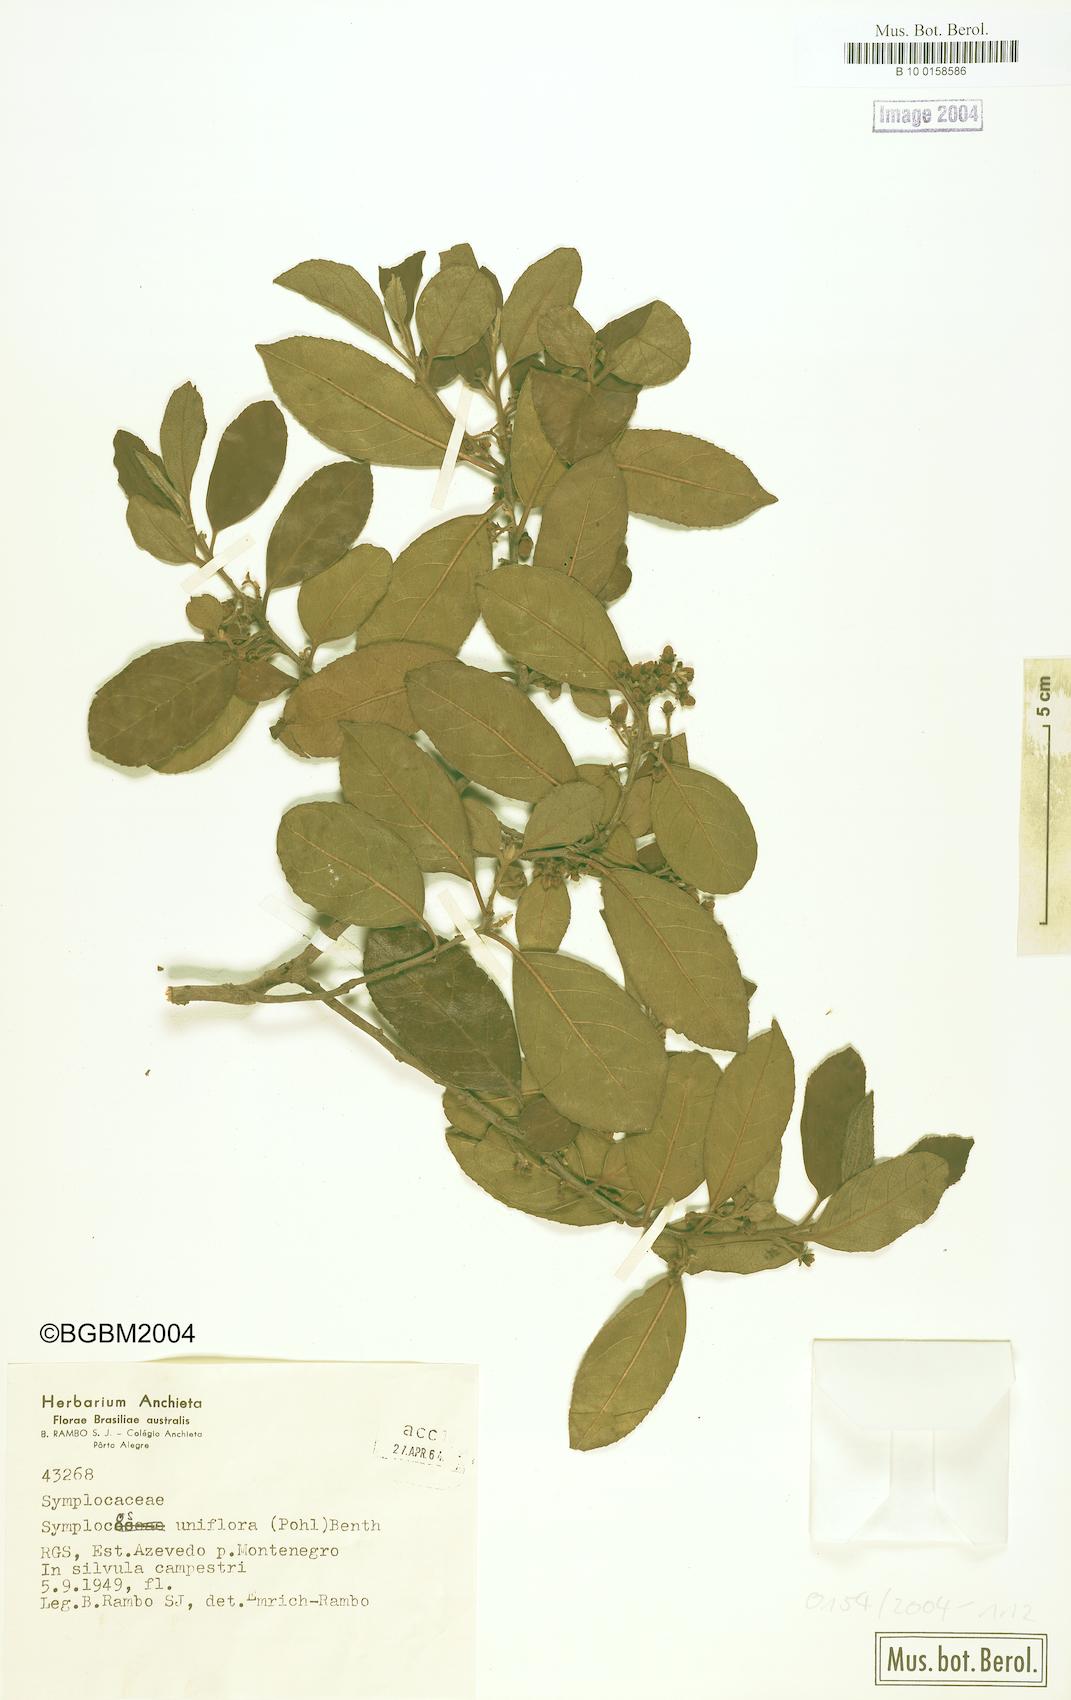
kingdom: Plantae
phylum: Tracheophyta
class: Magnoliopsida
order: Ericales
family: Symplocaceae
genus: Symplocos
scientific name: Symplocos uniflora
